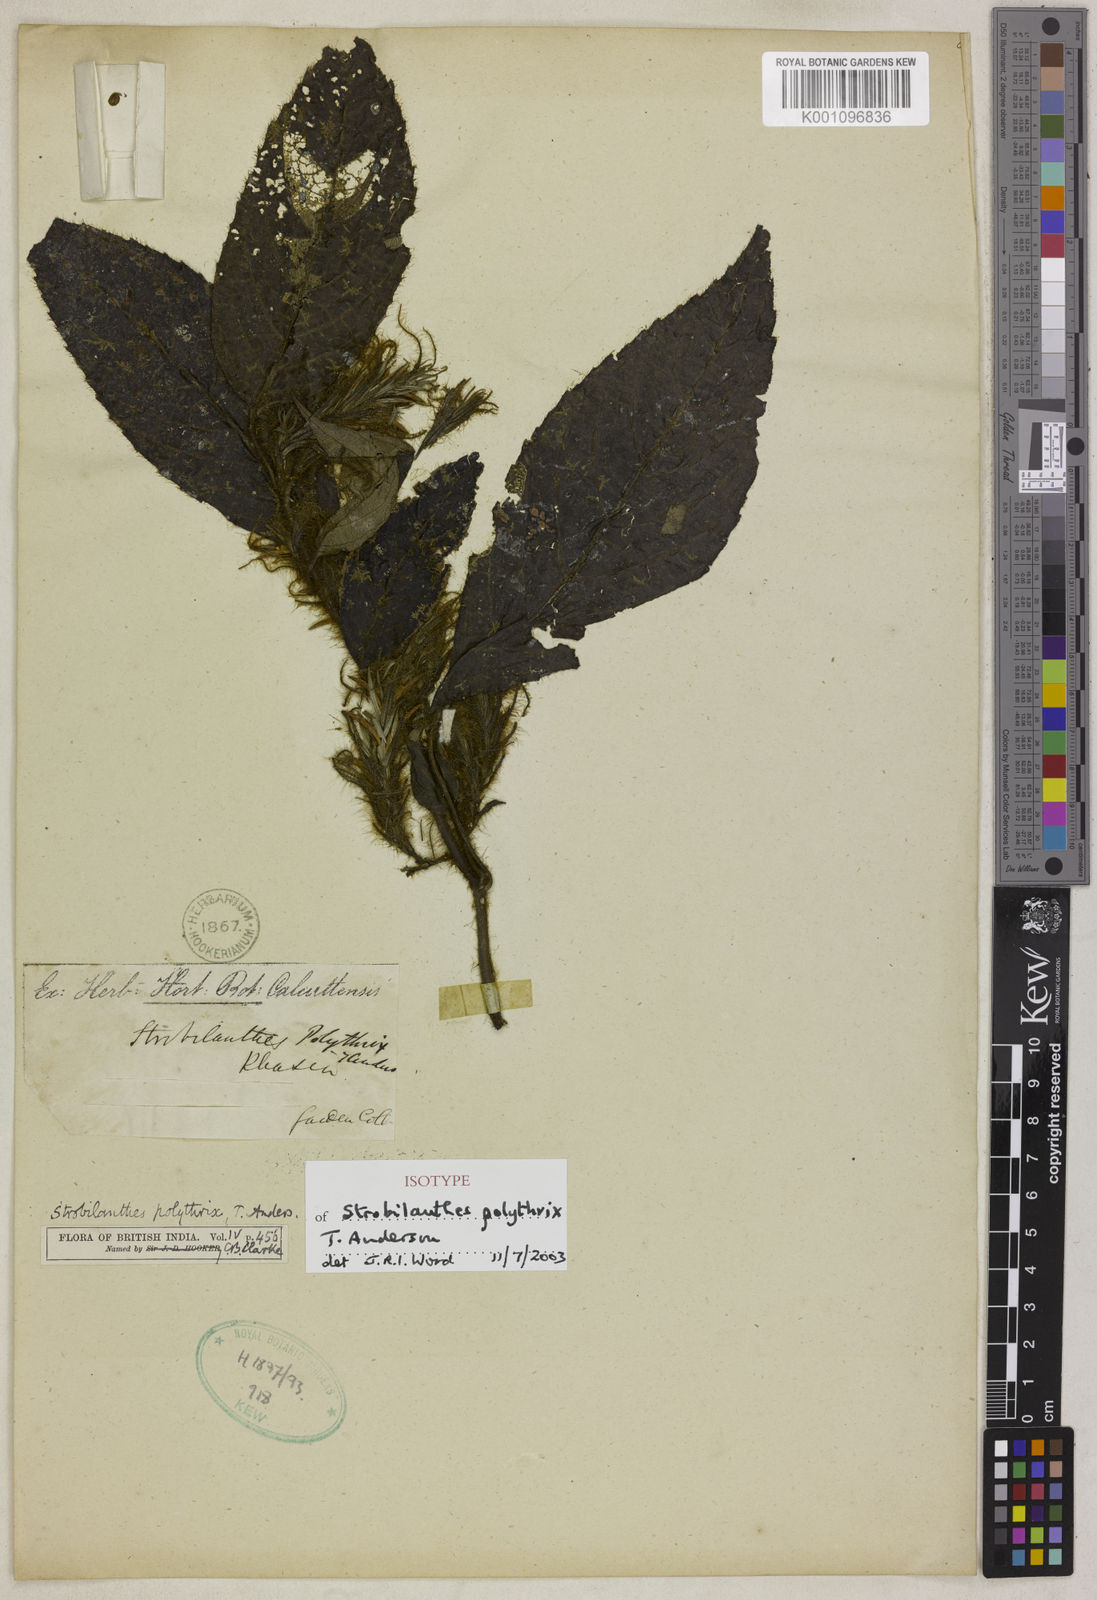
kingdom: Plantae
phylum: Tracheophyta
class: Magnoliopsida
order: Lamiales
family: Acanthaceae
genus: Strobilanthes
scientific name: Strobilanthes polythrix
